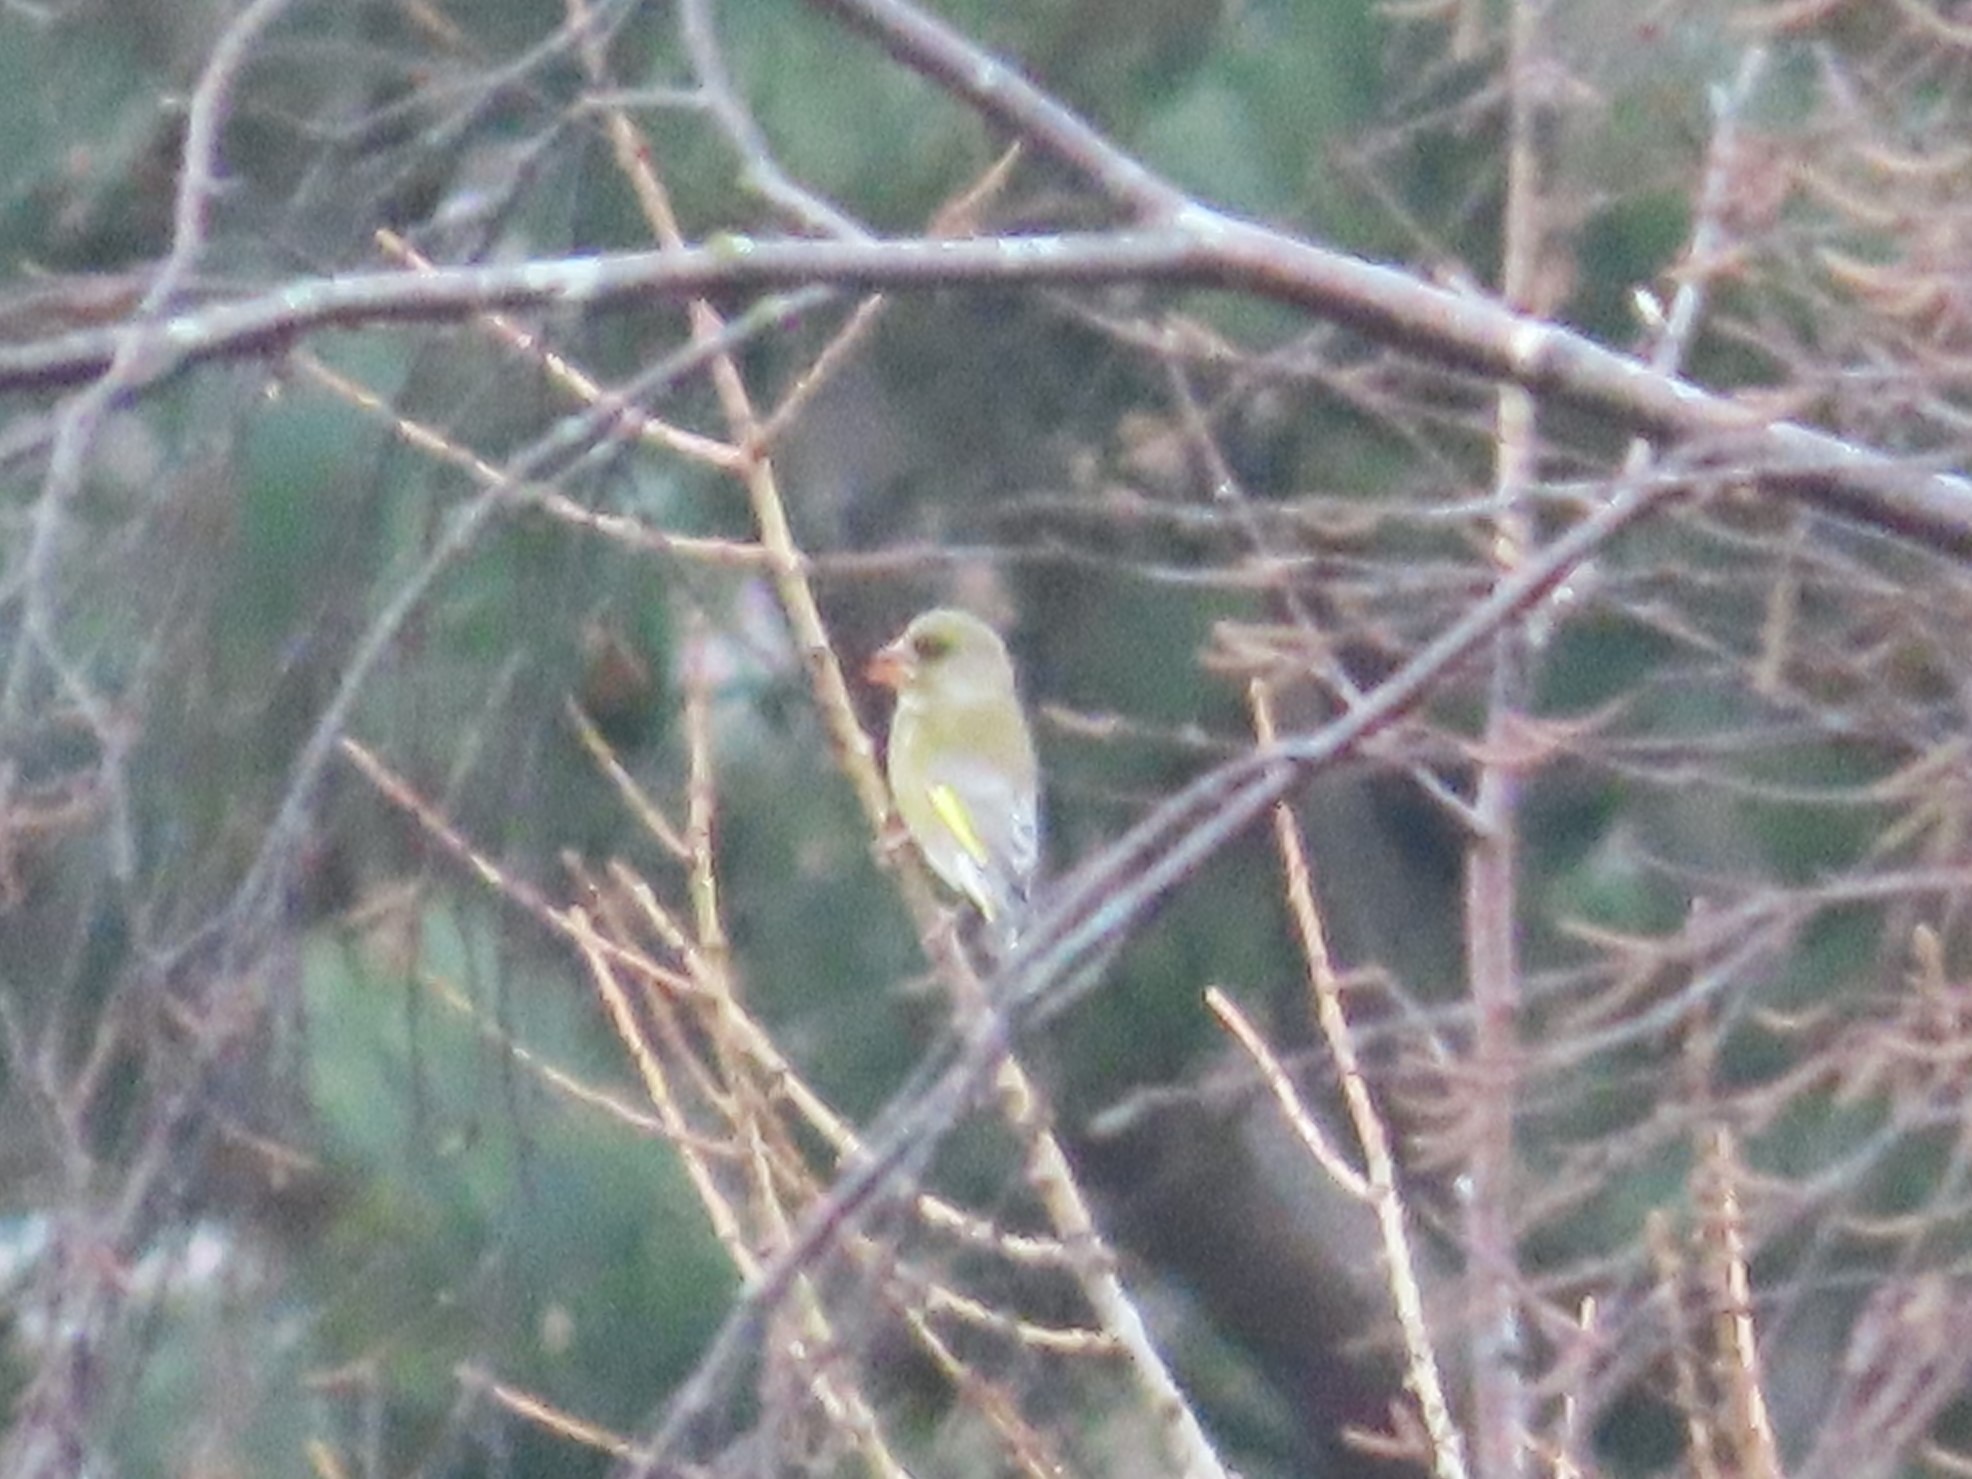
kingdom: Plantae
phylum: Tracheophyta
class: Liliopsida
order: Poales
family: Poaceae
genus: Chloris
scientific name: Chloris chloris
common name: Grønirisk
